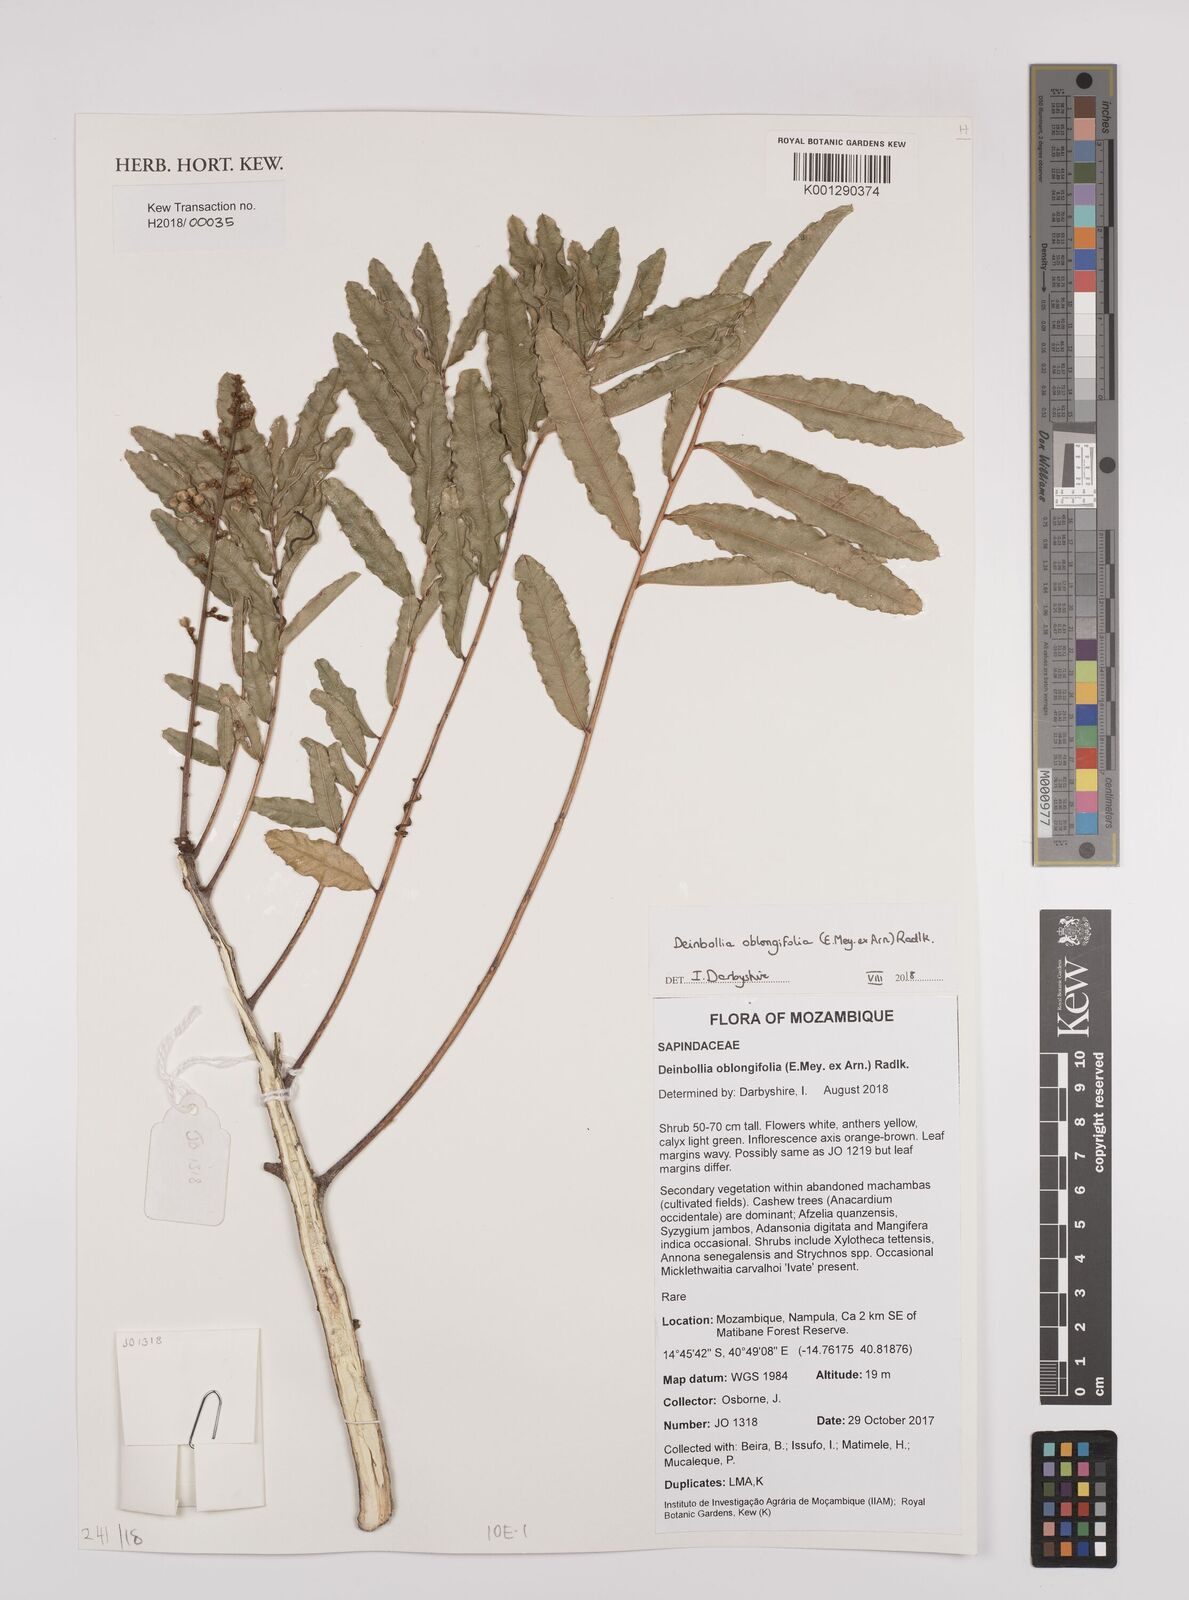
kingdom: Plantae
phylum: Tracheophyta
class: Magnoliopsida
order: Sapindales
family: Sapindaceae
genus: Deinbollia
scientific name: Deinbollia oblongifolia
